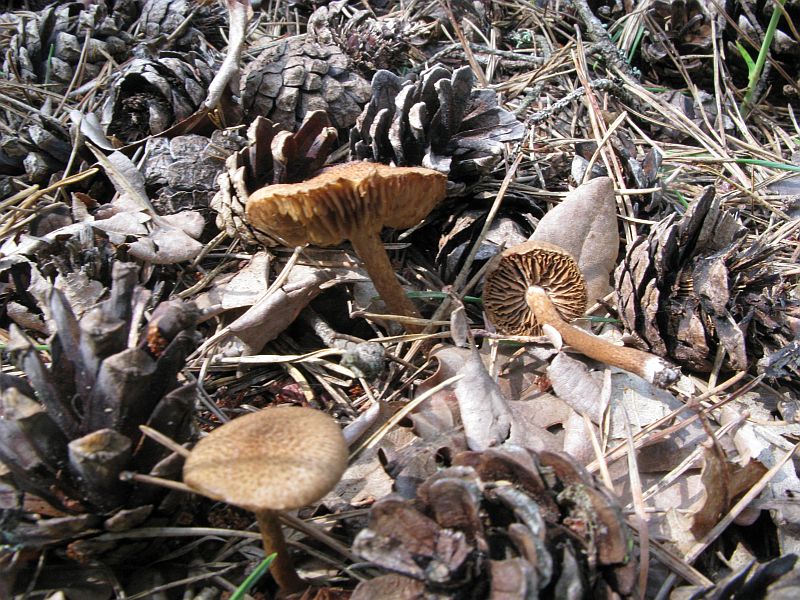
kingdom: Fungi
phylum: Basidiomycota
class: Agaricomycetes
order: Agaricales
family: Inocybaceae
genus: Inocybe
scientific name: Inocybe leptophylla
